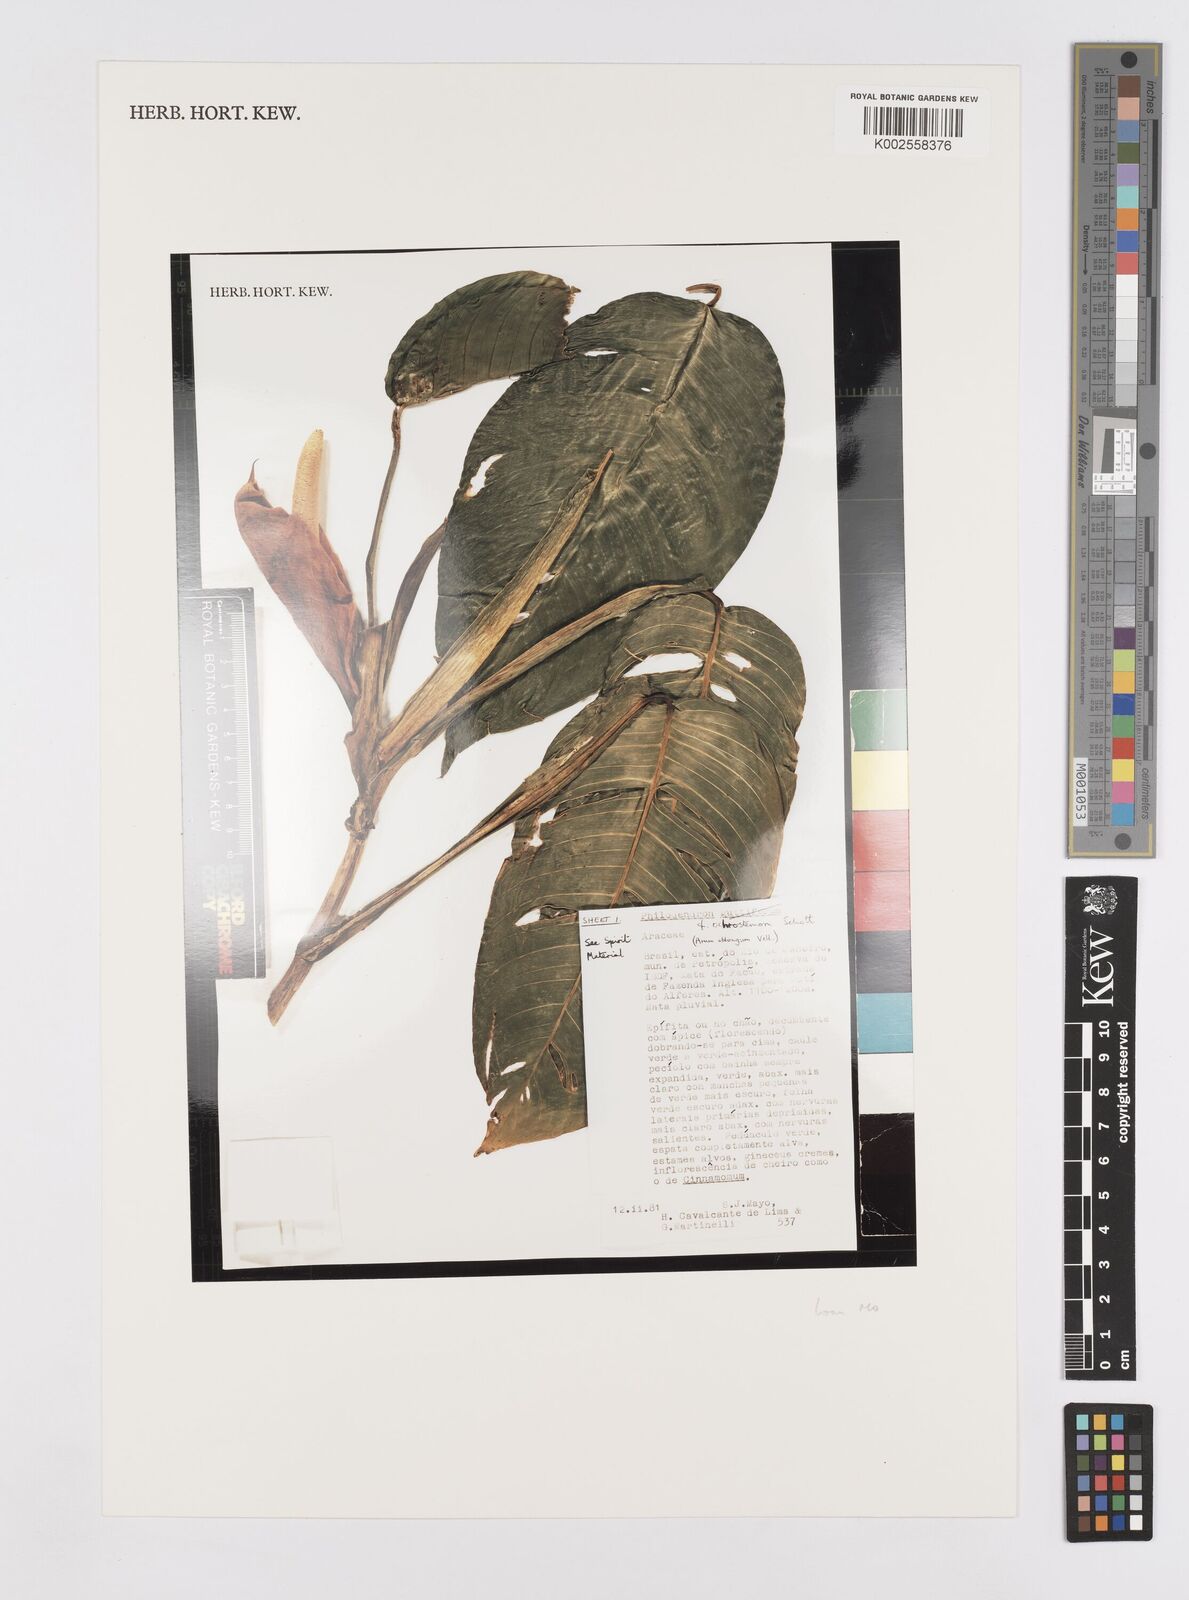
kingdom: Plantae
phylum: Tracheophyta
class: Liliopsida
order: Alismatales
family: Araceae
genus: Philodendron
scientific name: Philodendron ochrostemon
